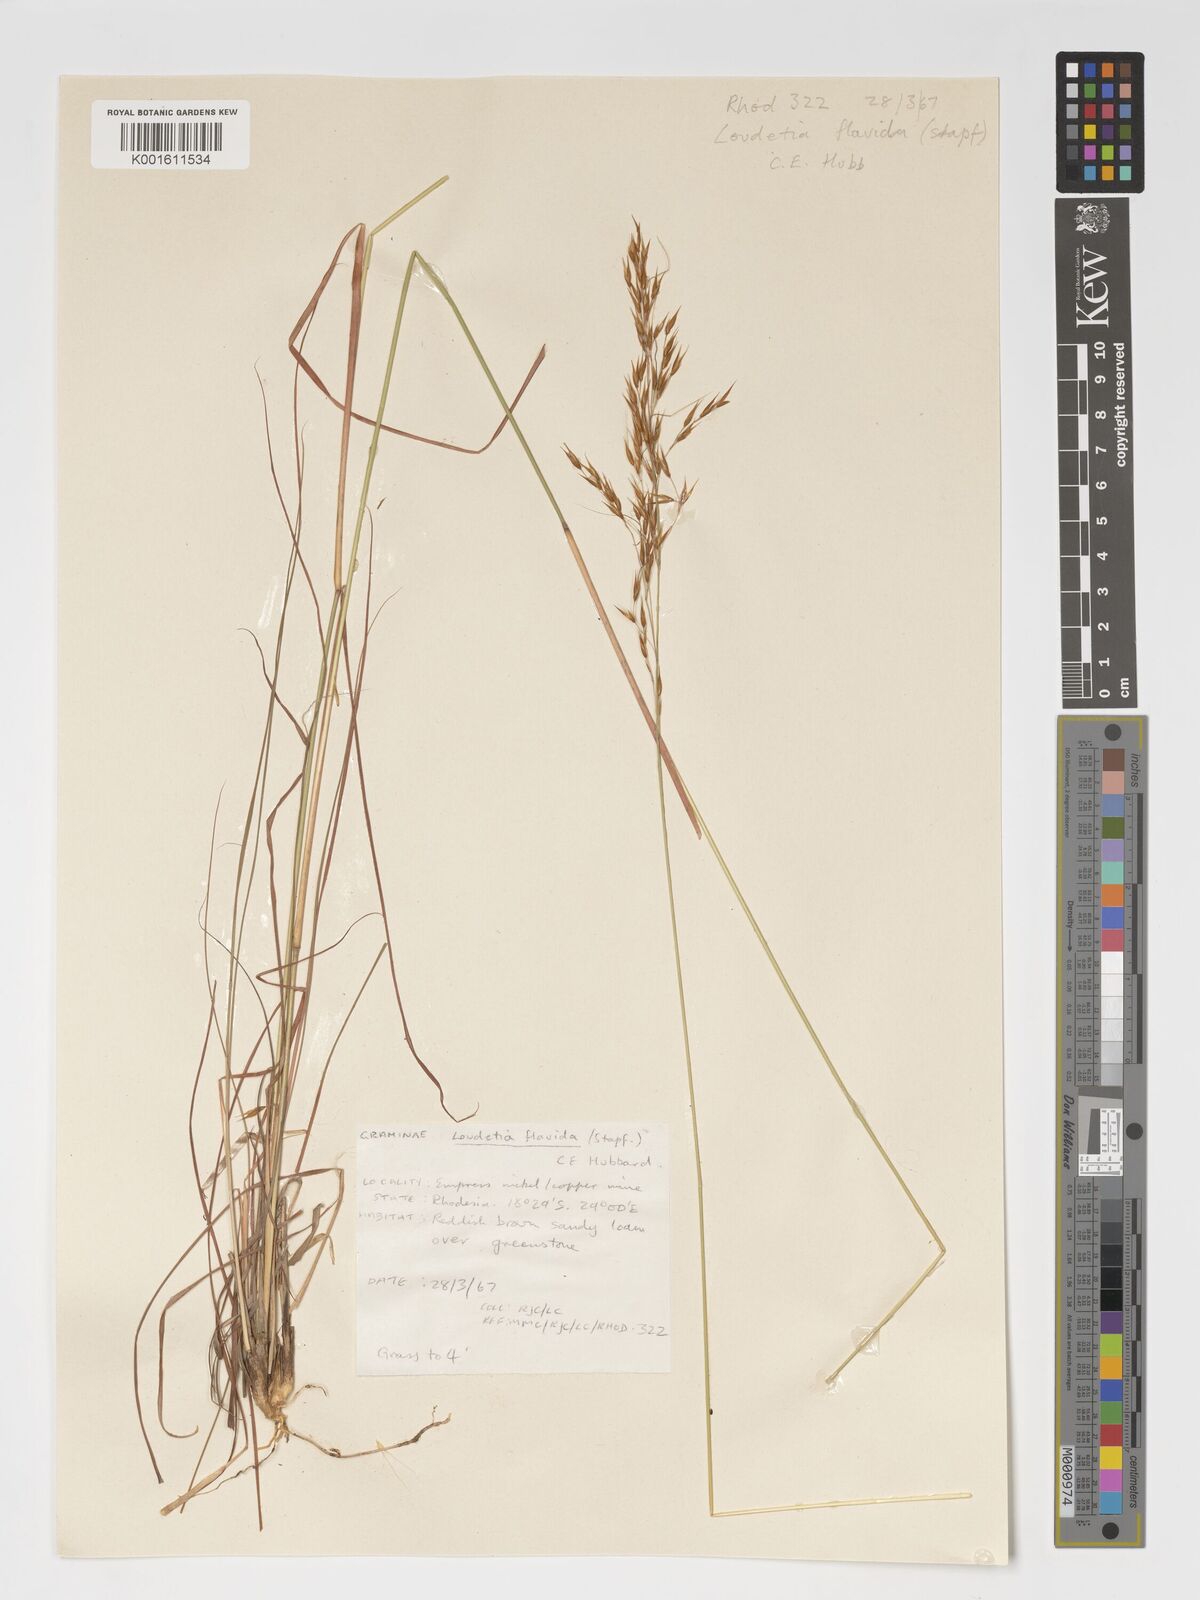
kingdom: Plantae
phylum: Tracheophyta
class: Liliopsida
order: Poales
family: Poaceae
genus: Loudetia
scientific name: Loudetia flavida
